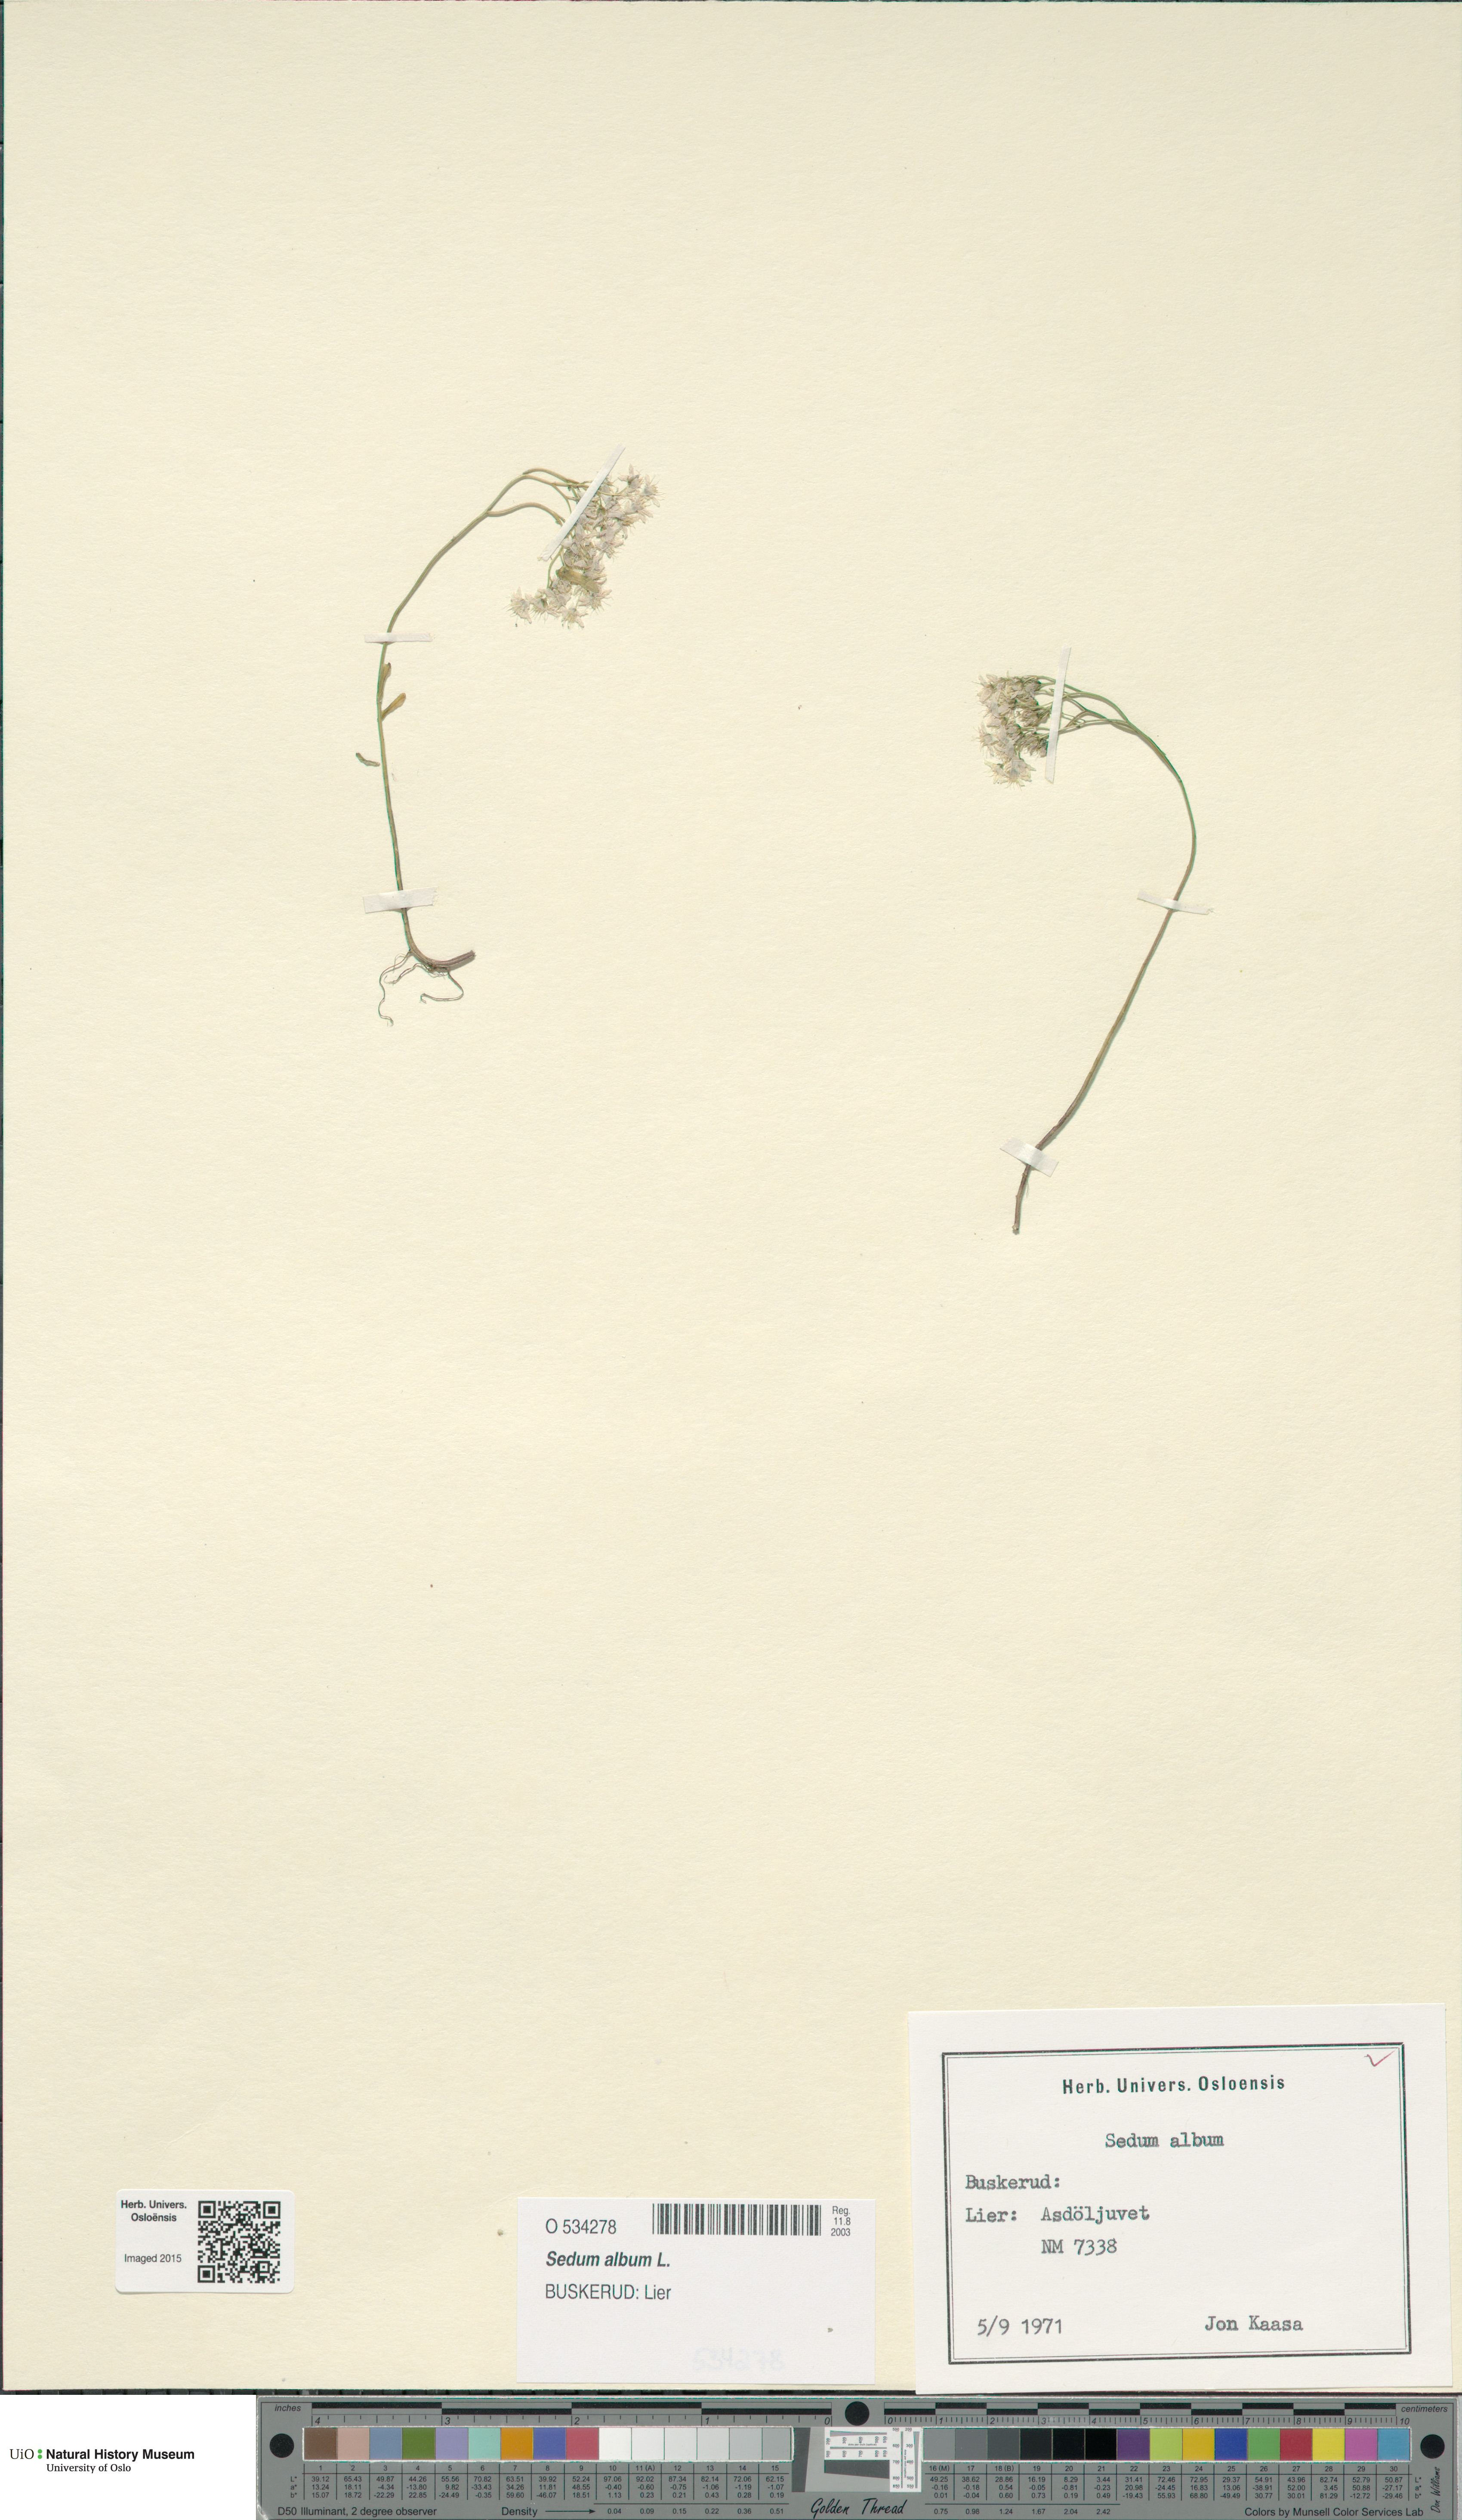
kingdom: Plantae
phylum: Tracheophyta
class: Magnoliopsida
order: Saxifragales
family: Crassulaceae
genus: Sedum
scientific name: Sedum album
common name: White stonecrop
